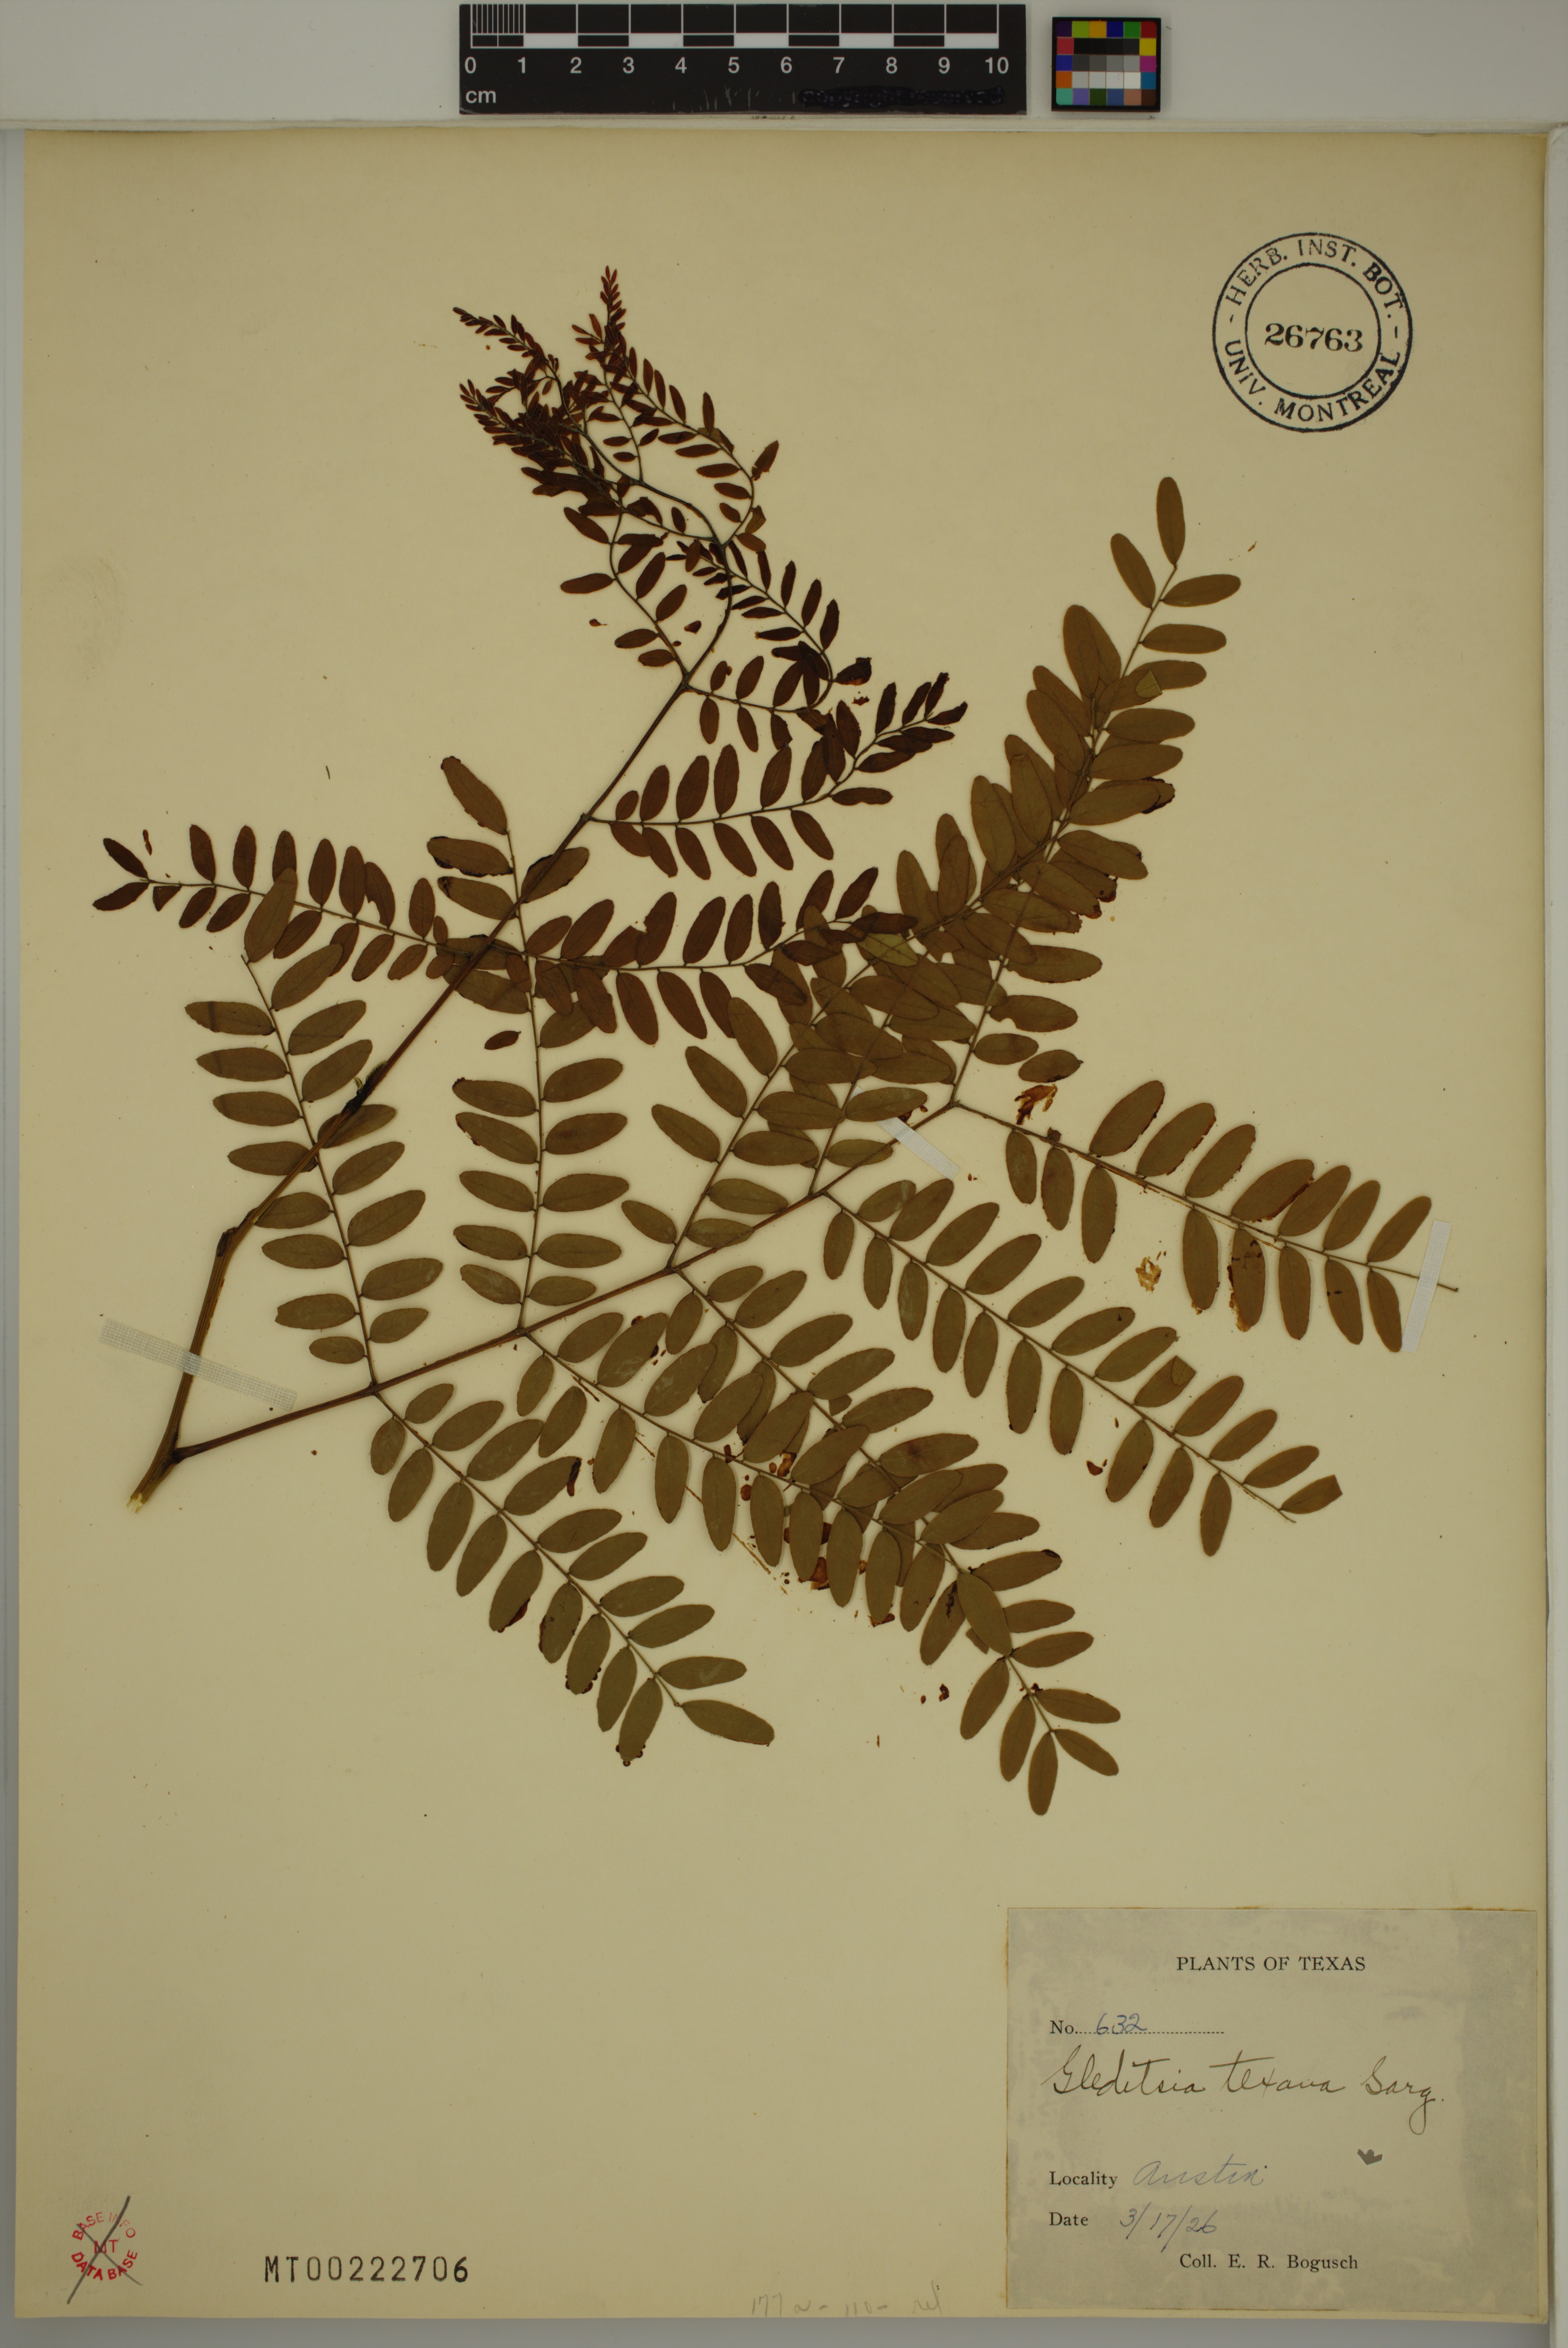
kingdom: Plantae
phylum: Tracheophyta
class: Magnoliopsida
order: Fabales
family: Fabaceae
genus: Gleditsia
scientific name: Gleditsia texana
